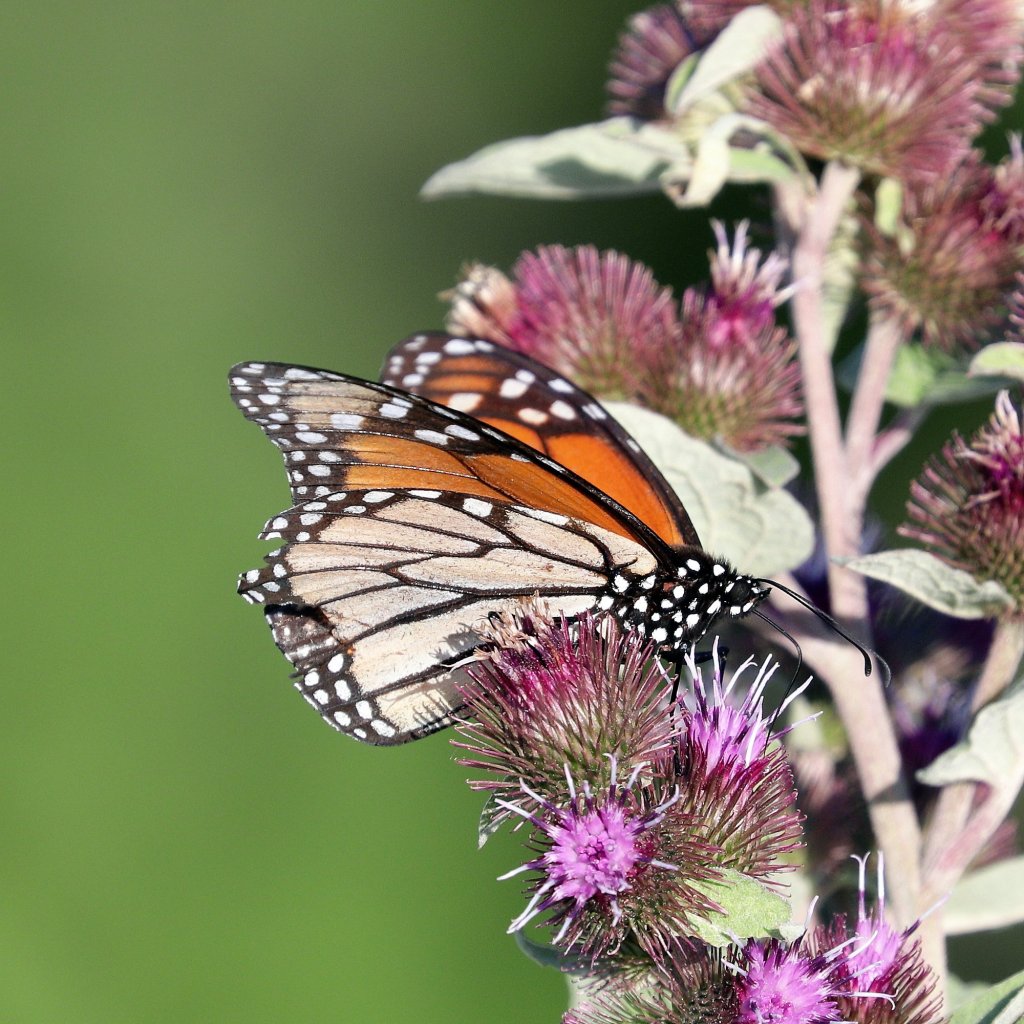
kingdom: Animalia
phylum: Arthropoda
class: Insecta
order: Lepidoptera
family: Nymphalidae
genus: Danaus
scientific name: Danaus plexippus
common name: Monarch
